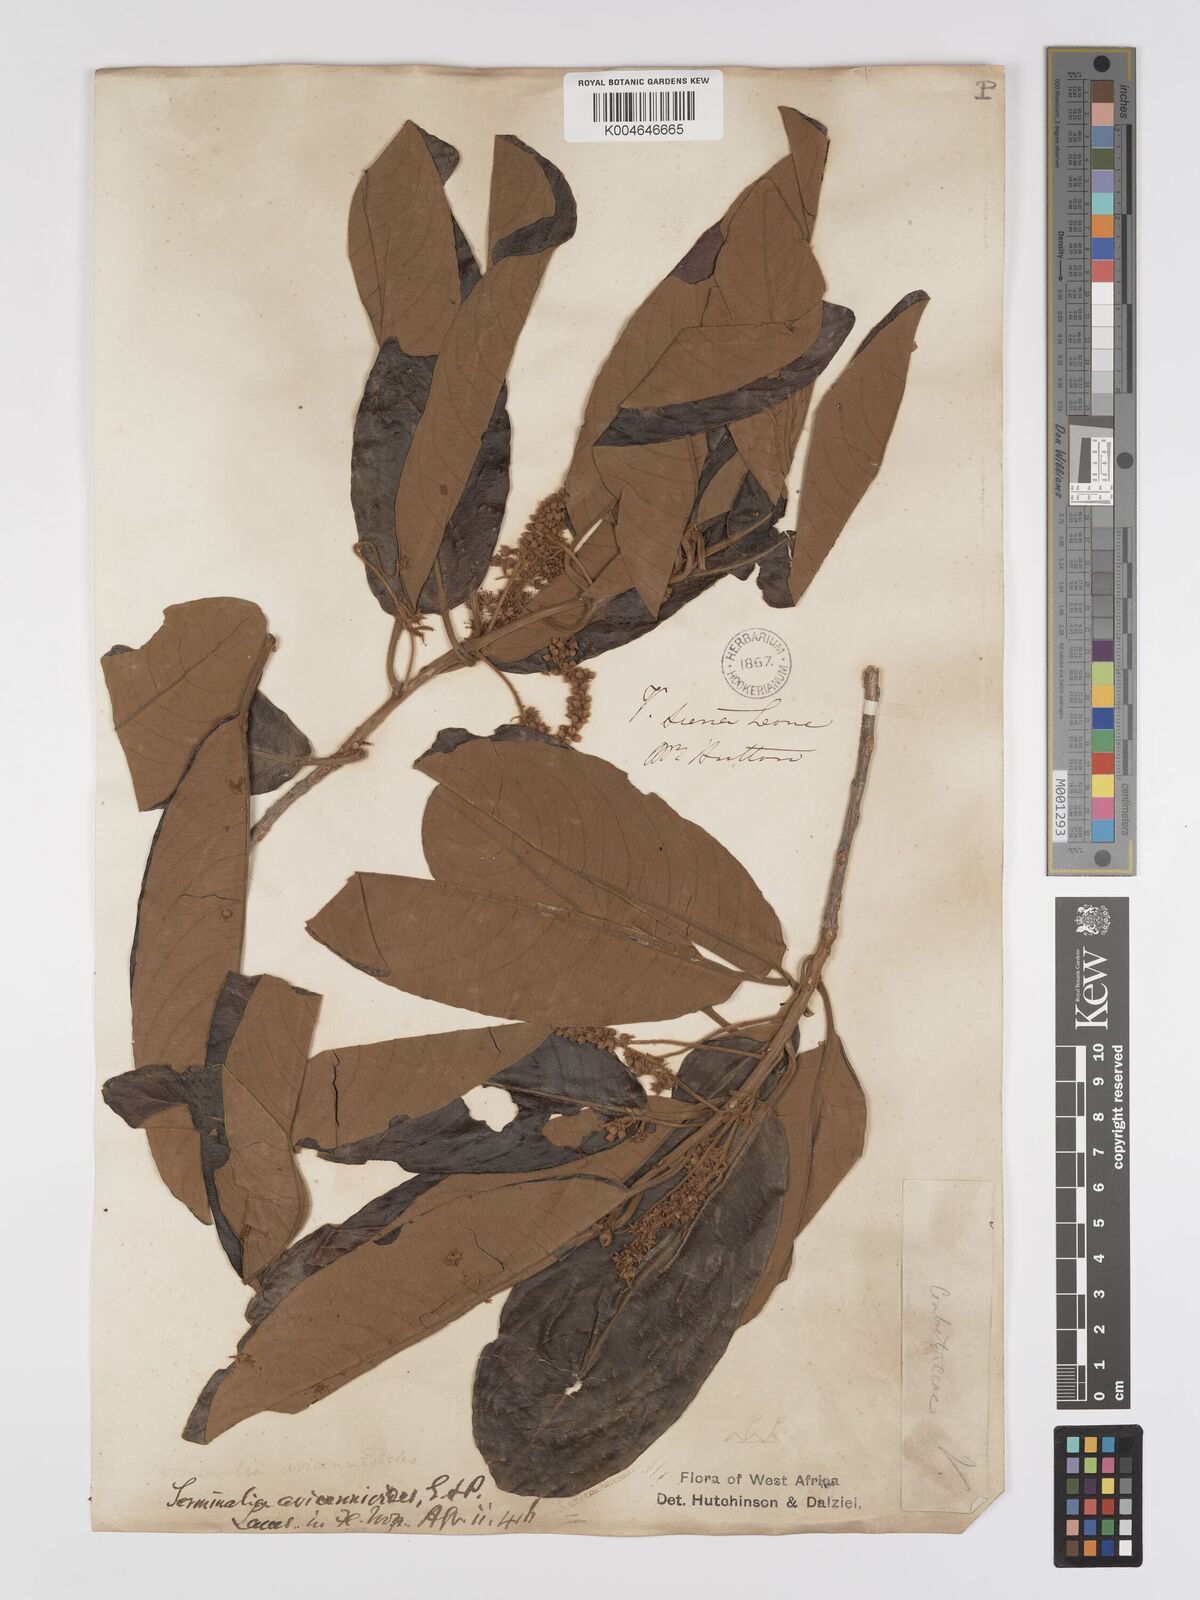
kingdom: Plantae
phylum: Tracheophyta
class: Magnoliopsida
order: Myrtales
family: Combretaceae
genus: Terminalia
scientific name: Terminalia avicennioides
